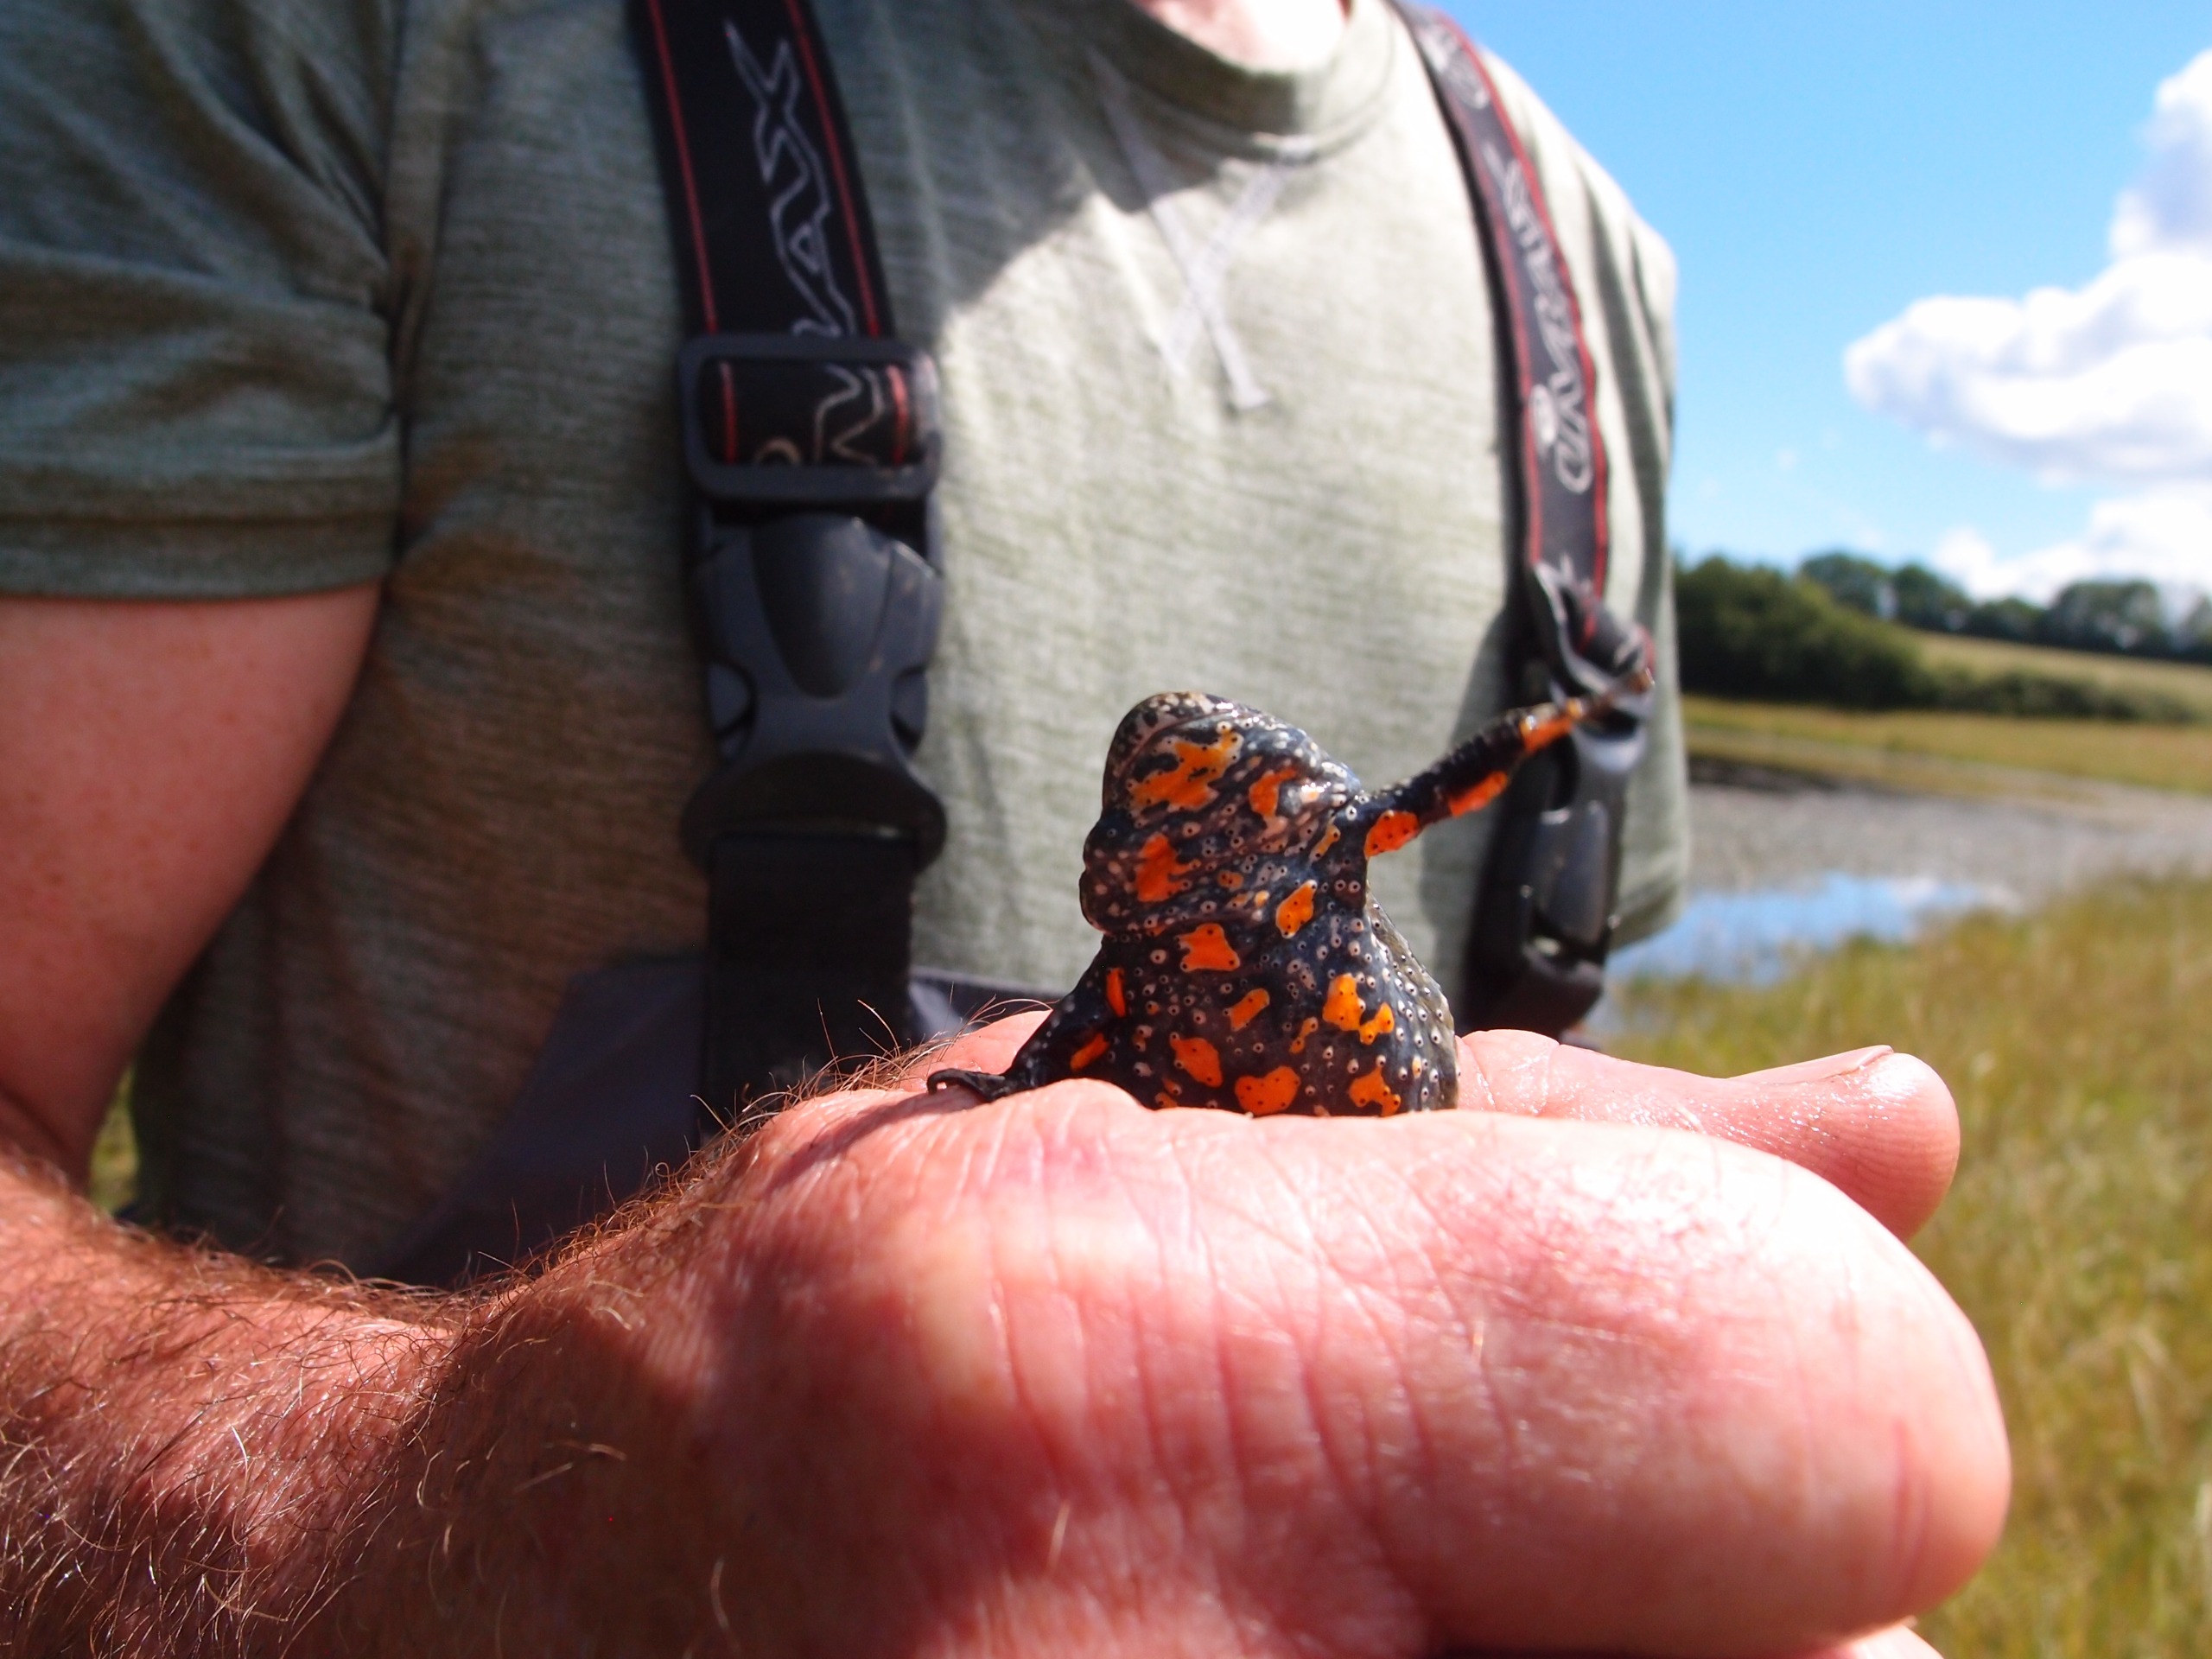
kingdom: Animalia
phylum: Chordata
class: Amphibia
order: Anura
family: Bombinatoridae
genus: Bombina
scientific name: Bombina bombina
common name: Klokkefrø
